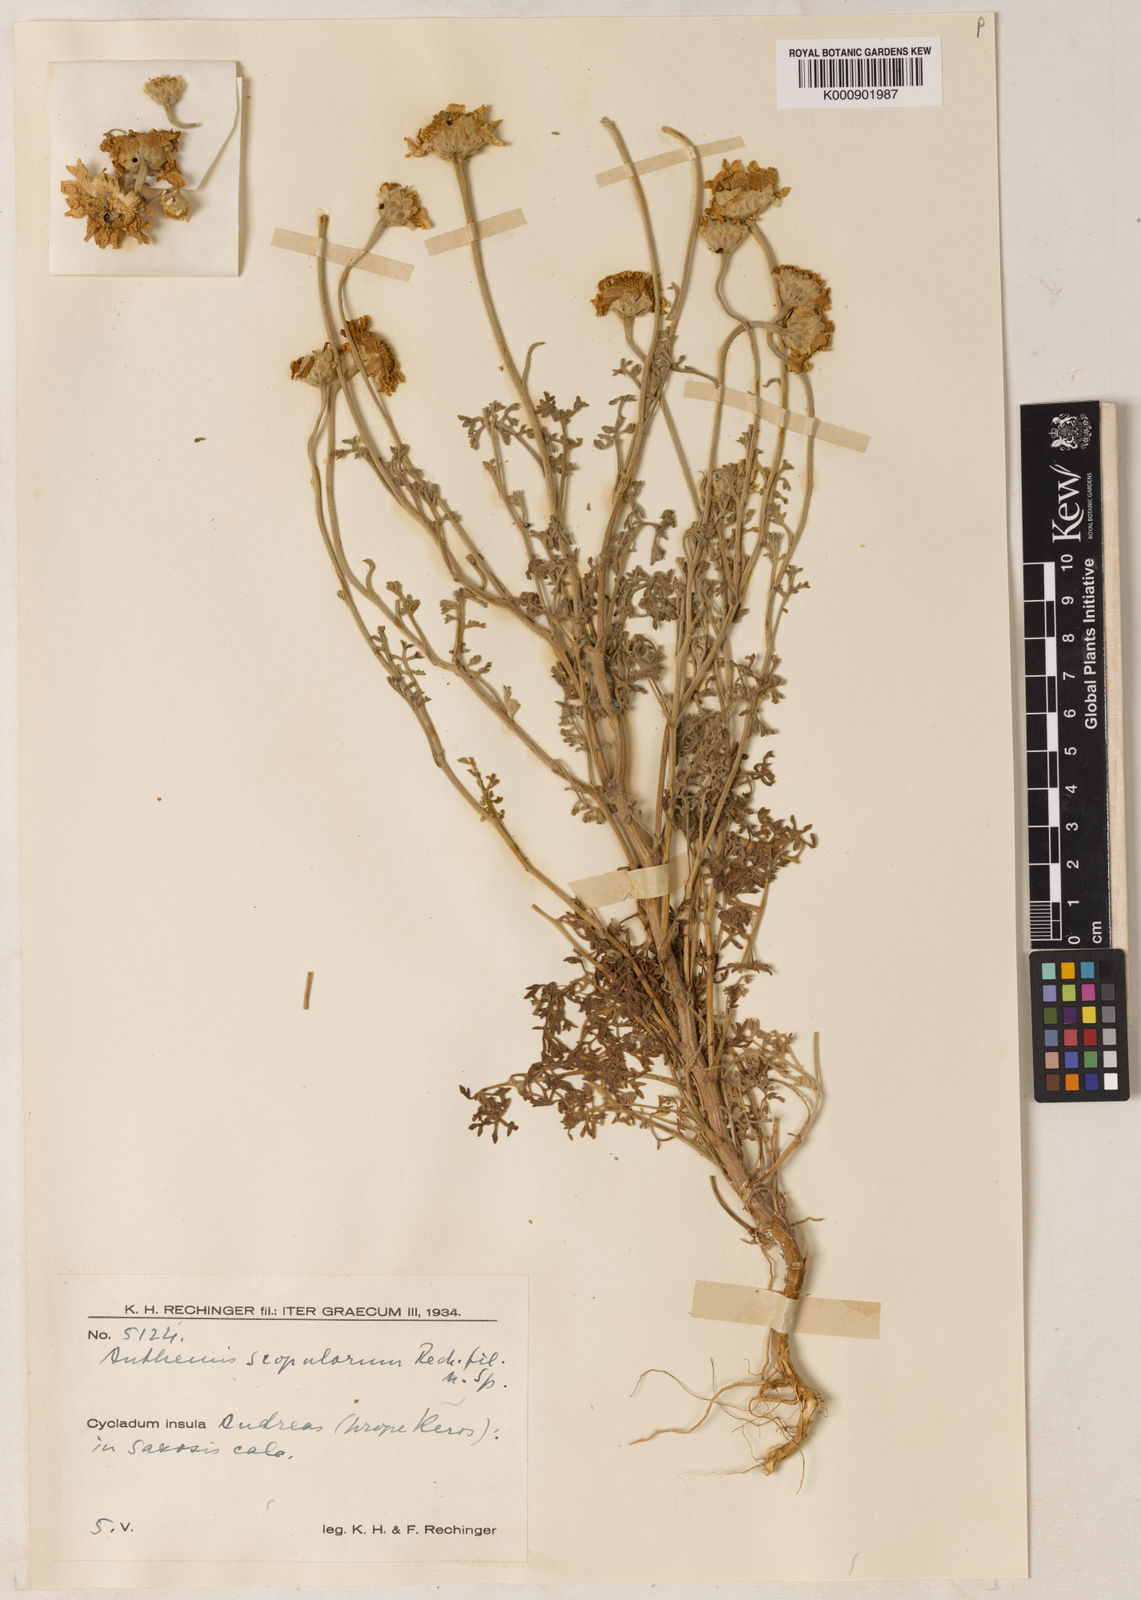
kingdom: Plantae
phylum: Tracheophyta
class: Magnoliopsida
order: Asterales
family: Asteraceae
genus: Anthemis
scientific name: Anthemis scopulorum
